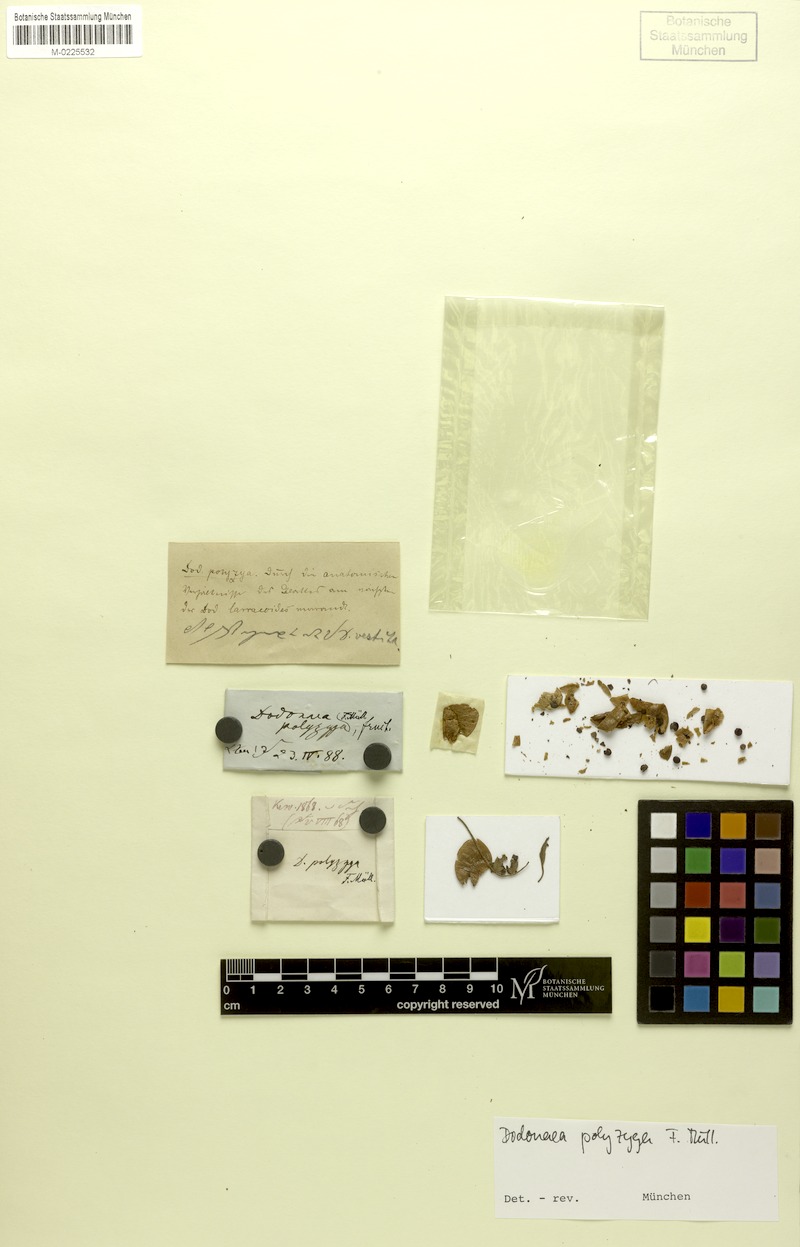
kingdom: Plantae
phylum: Tracheophyta
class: Magnoliopsida
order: Sapindales
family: Sapindaceae
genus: Dodonaea
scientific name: Dodonaea polyzyga
